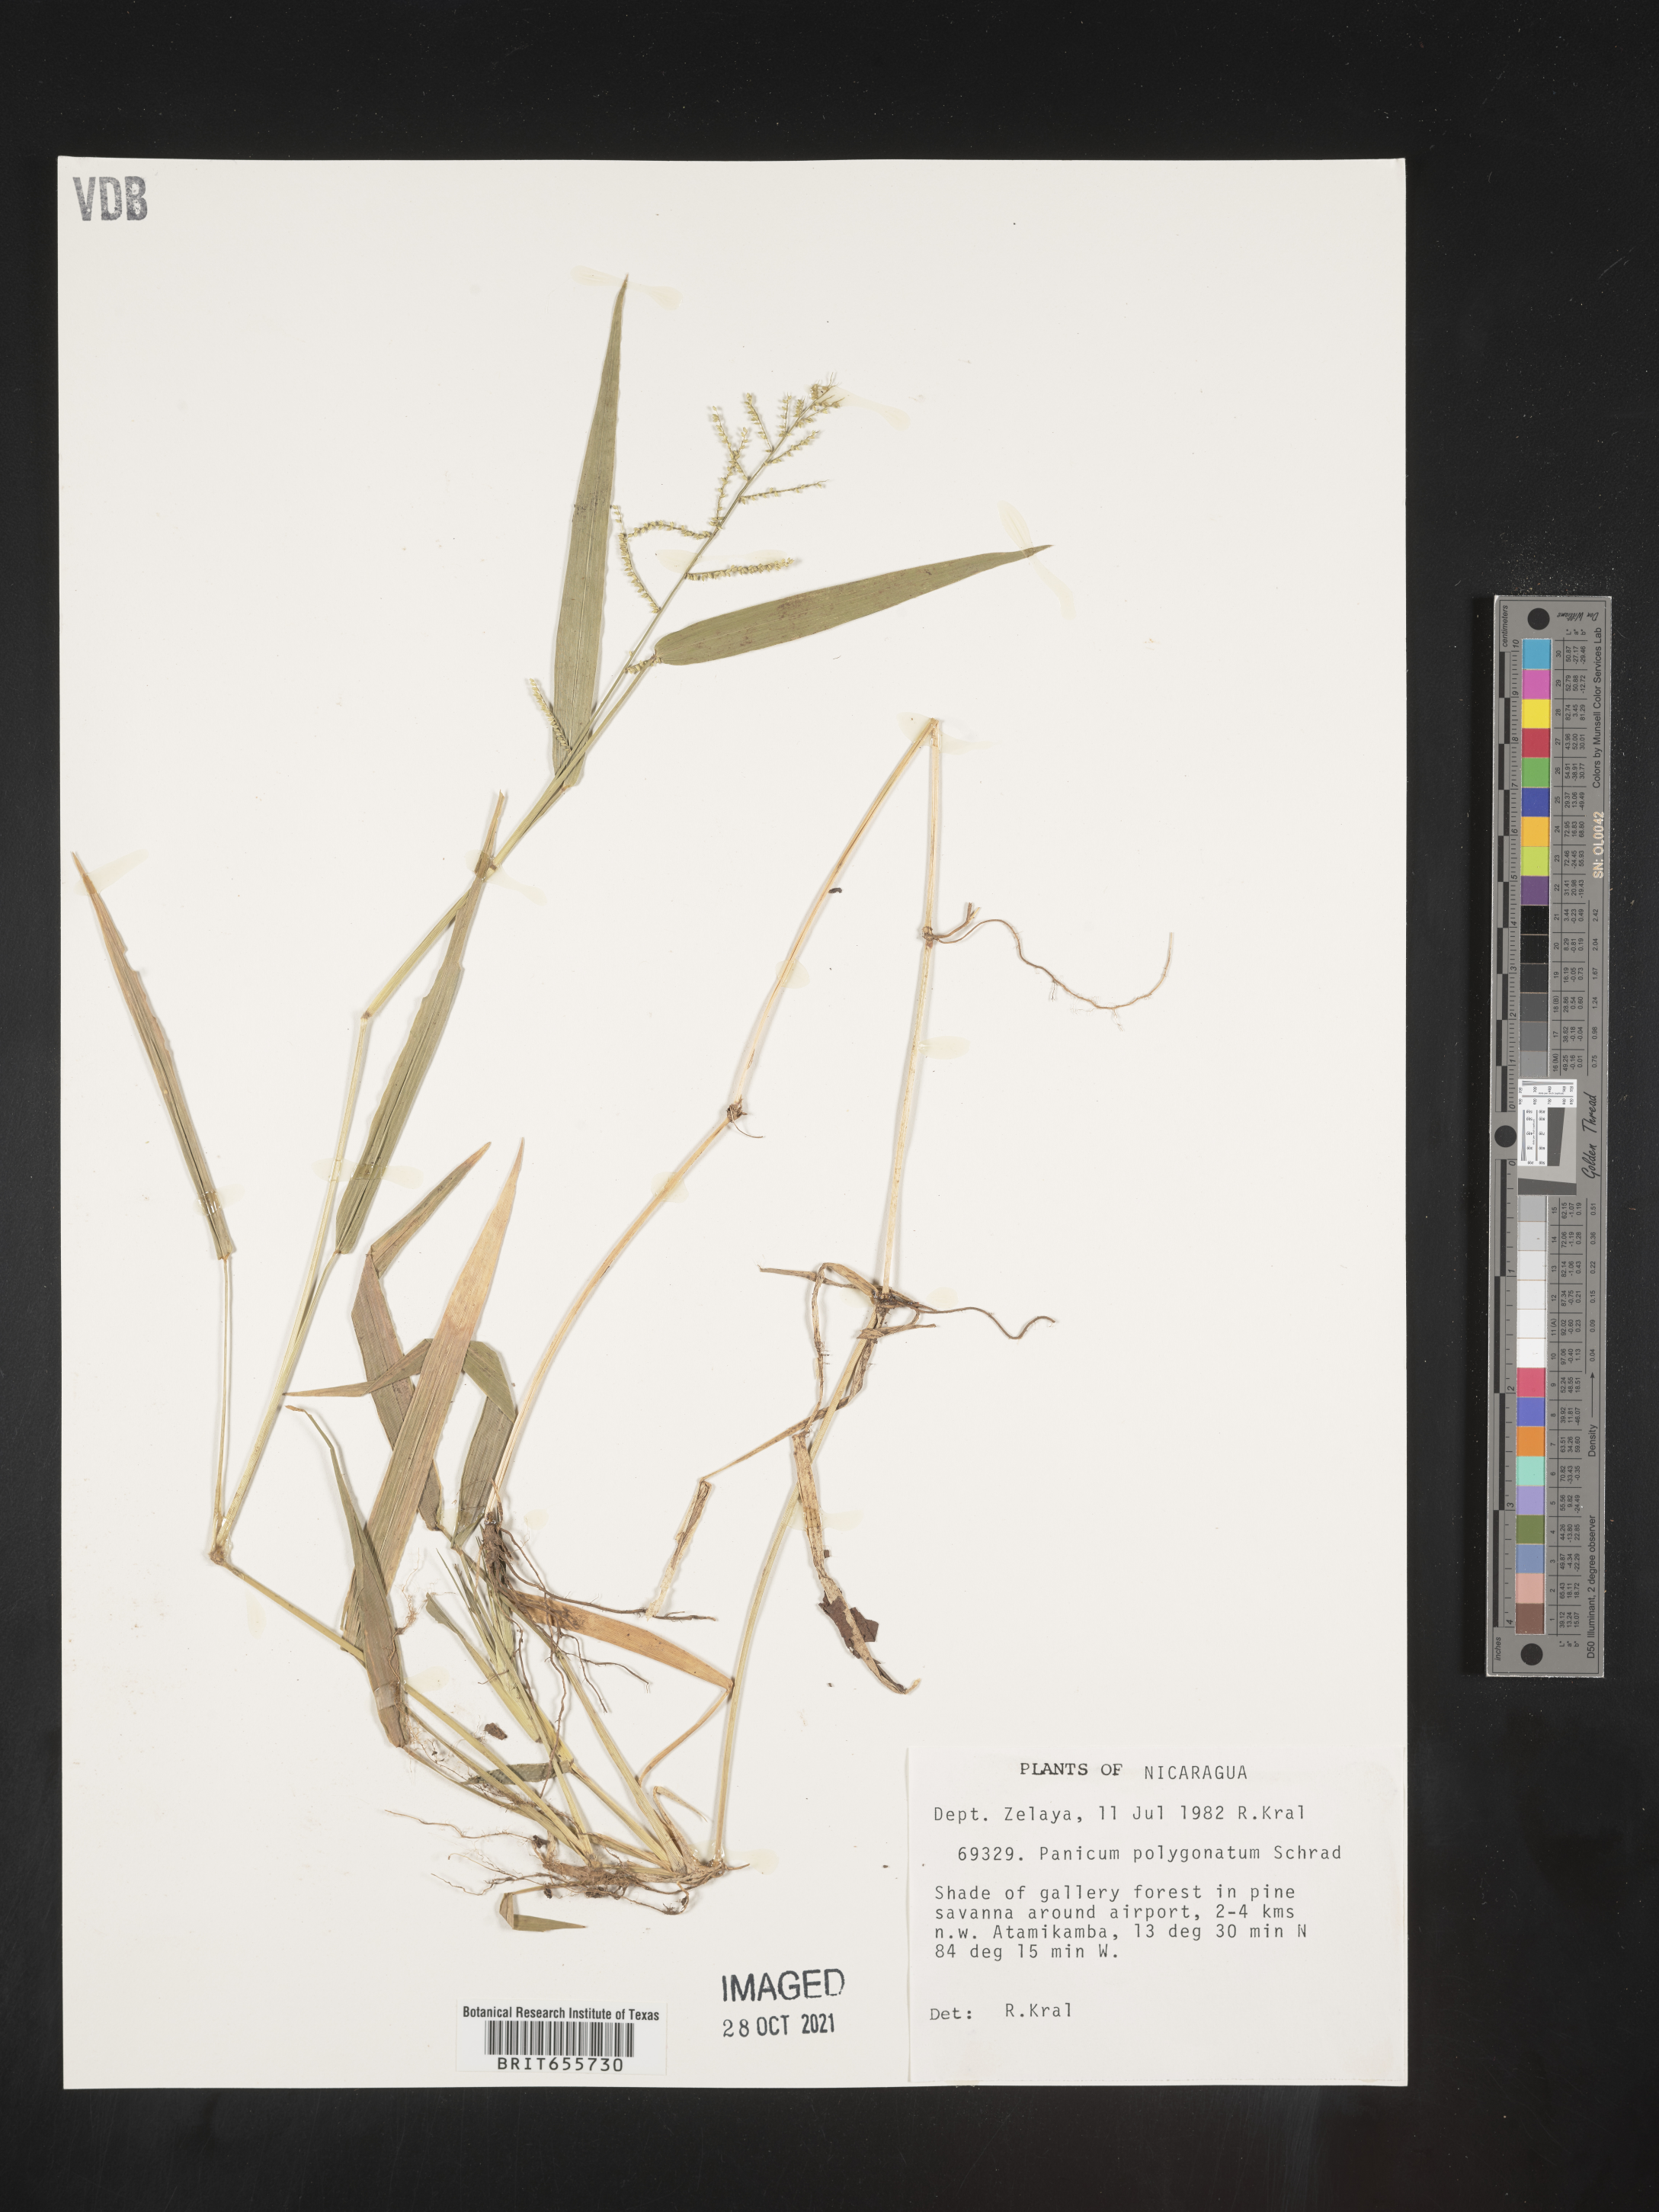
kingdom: Plantae
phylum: Tracheophyta
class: Liliopsida
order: Poales
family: Poaceae
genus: Panicum
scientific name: Panicum
